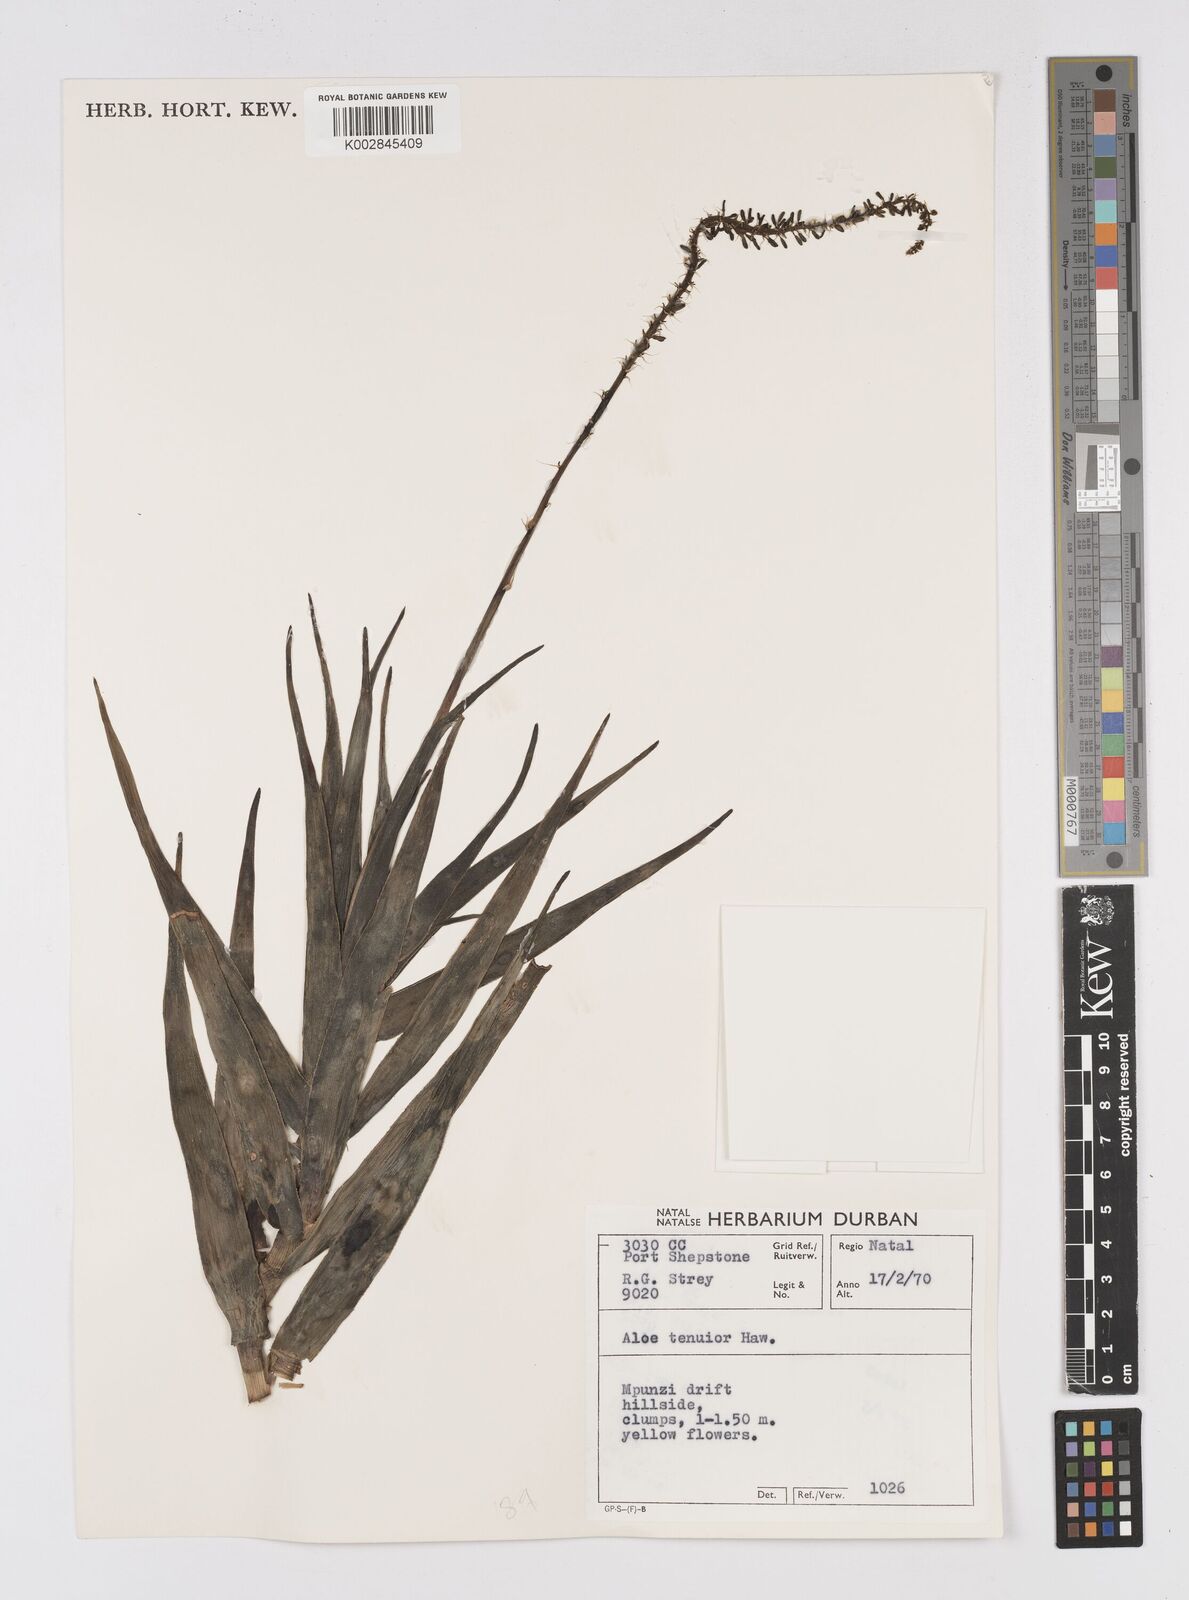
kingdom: Plantae
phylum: Tracheophyta
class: Liliopsida
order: Asparagales
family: Asphodelaceae
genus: Aloiampelos
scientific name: Aloiampelos tenuior
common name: Fence aloe
